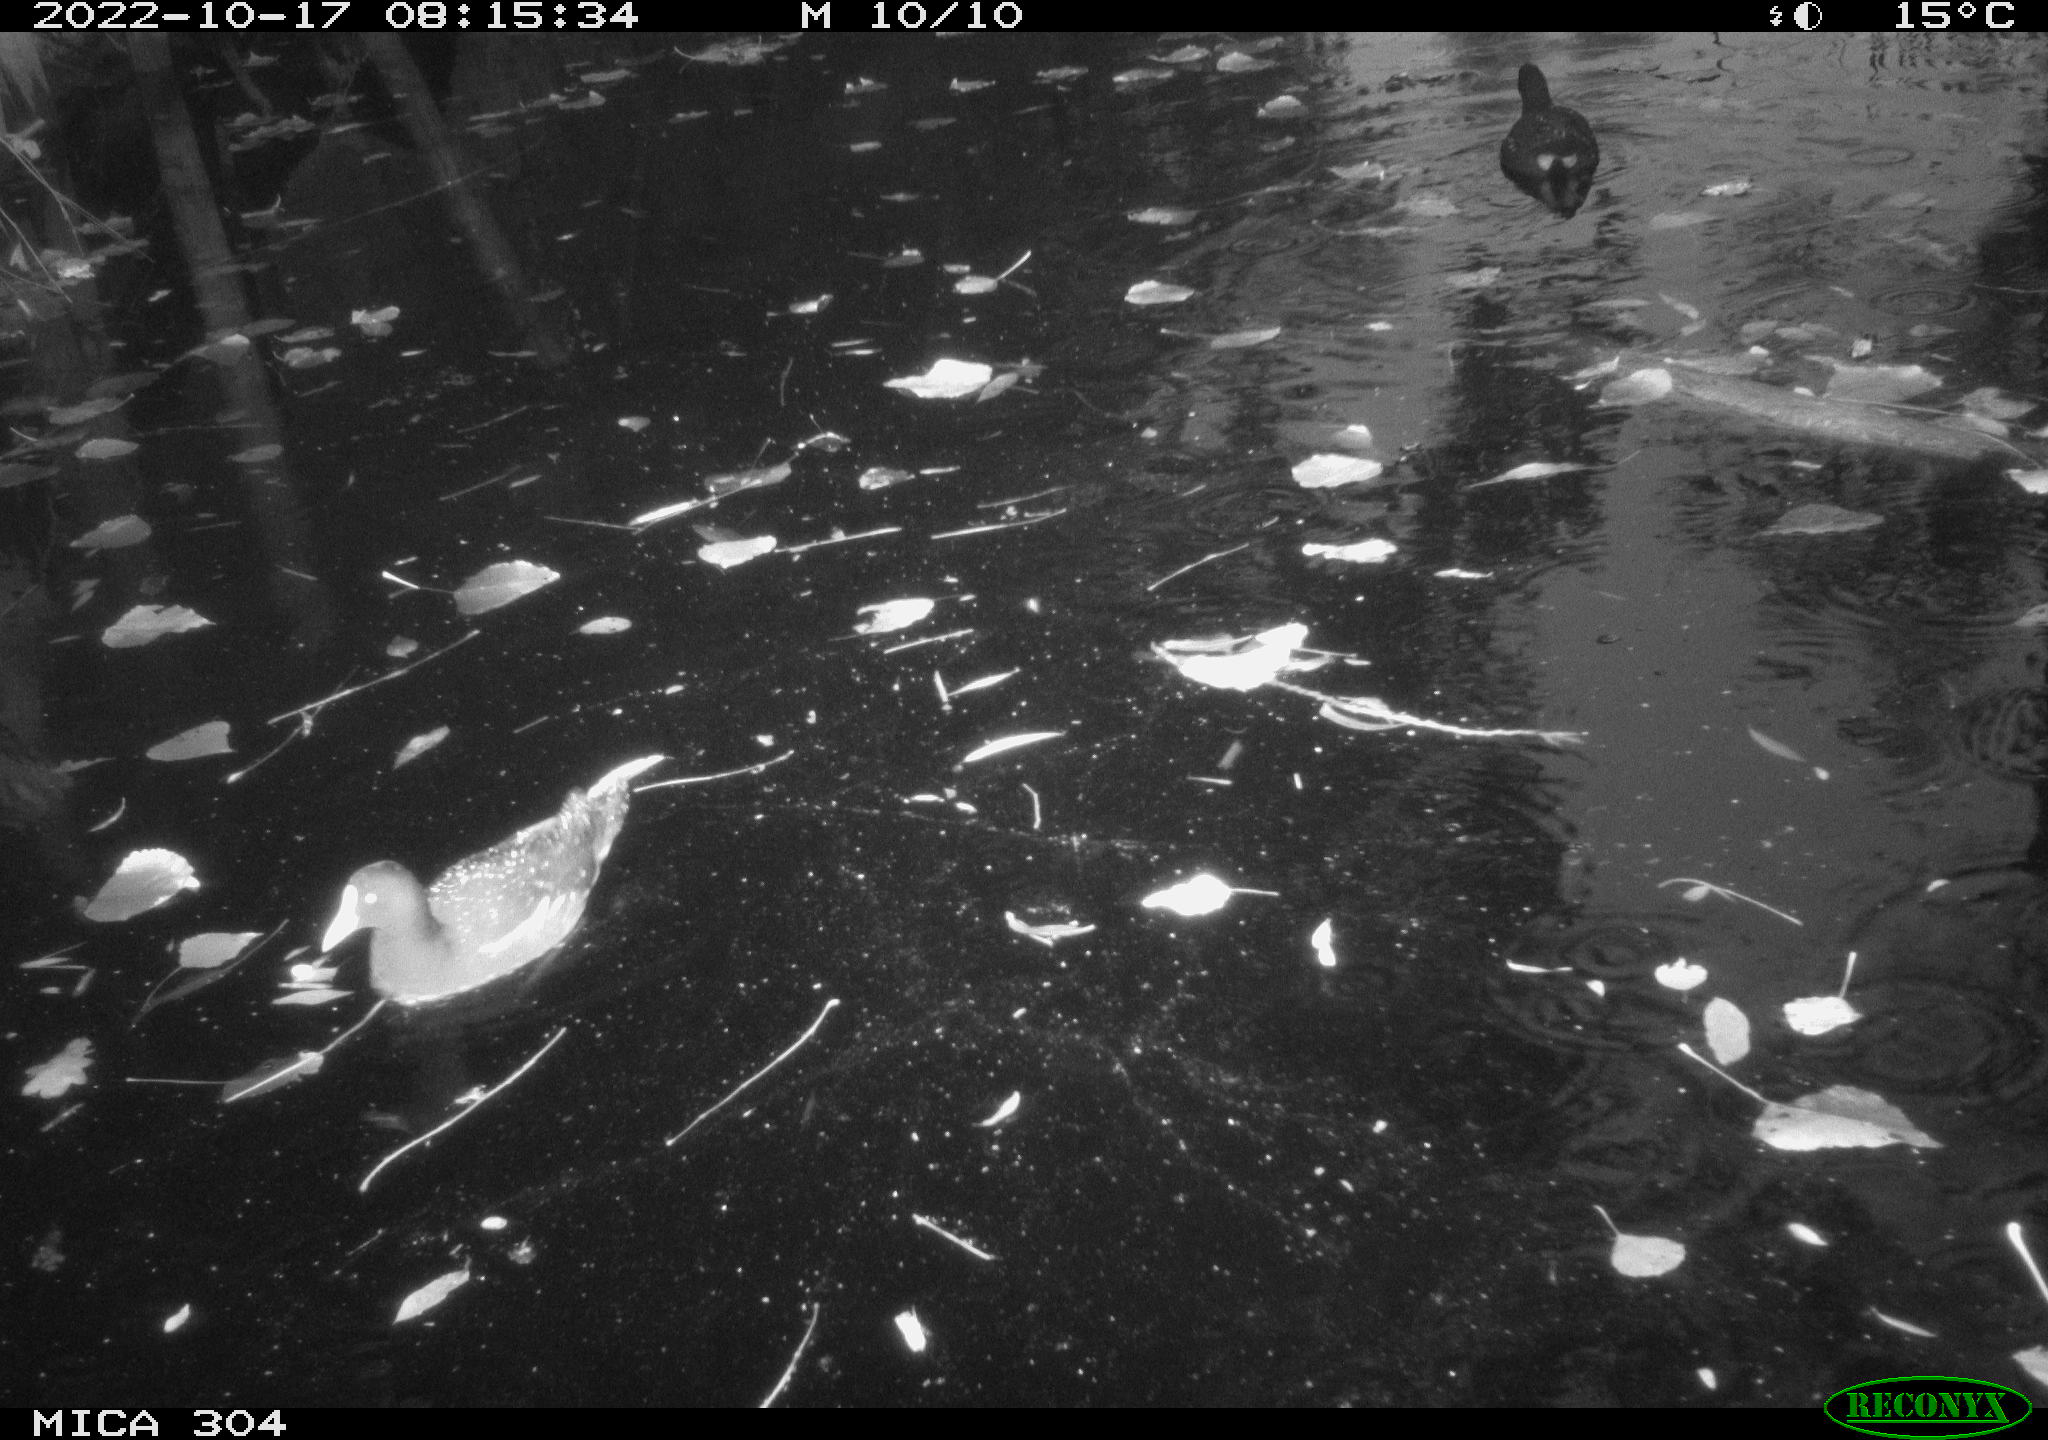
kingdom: Animalia
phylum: Chordata
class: Aves
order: Gruiformes
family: Rallidae
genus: Gallinula
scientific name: Gallinula chloropus
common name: Common moorhen
